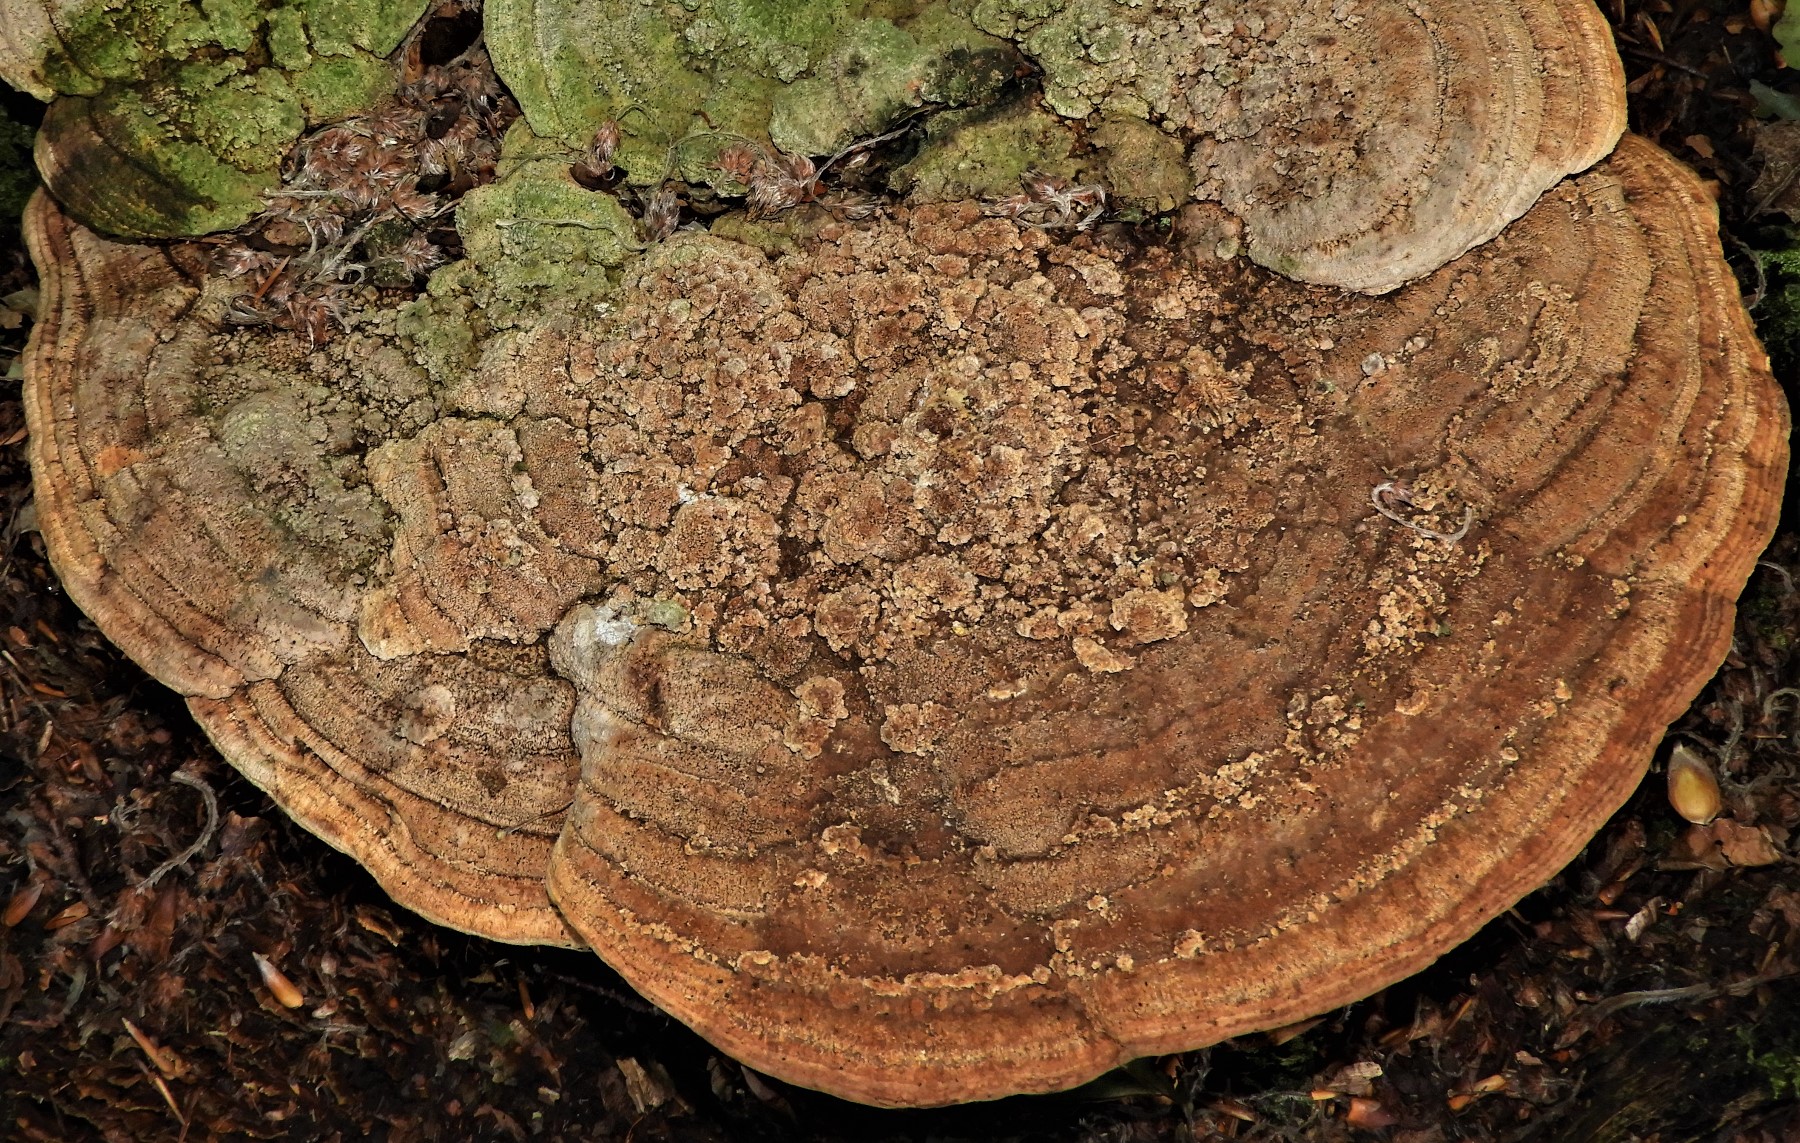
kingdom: Fungi
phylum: Basidiomycota
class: Agaricomycetes
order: Polyporales
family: Fomitopsidaceae
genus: Daedalea
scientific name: Daedalea quercina
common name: ege-labyrintsvamp
